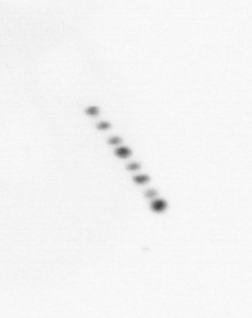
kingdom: Chromista
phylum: Ochrophyta
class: Bacillariophyceae
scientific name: Bacillariophyceae
